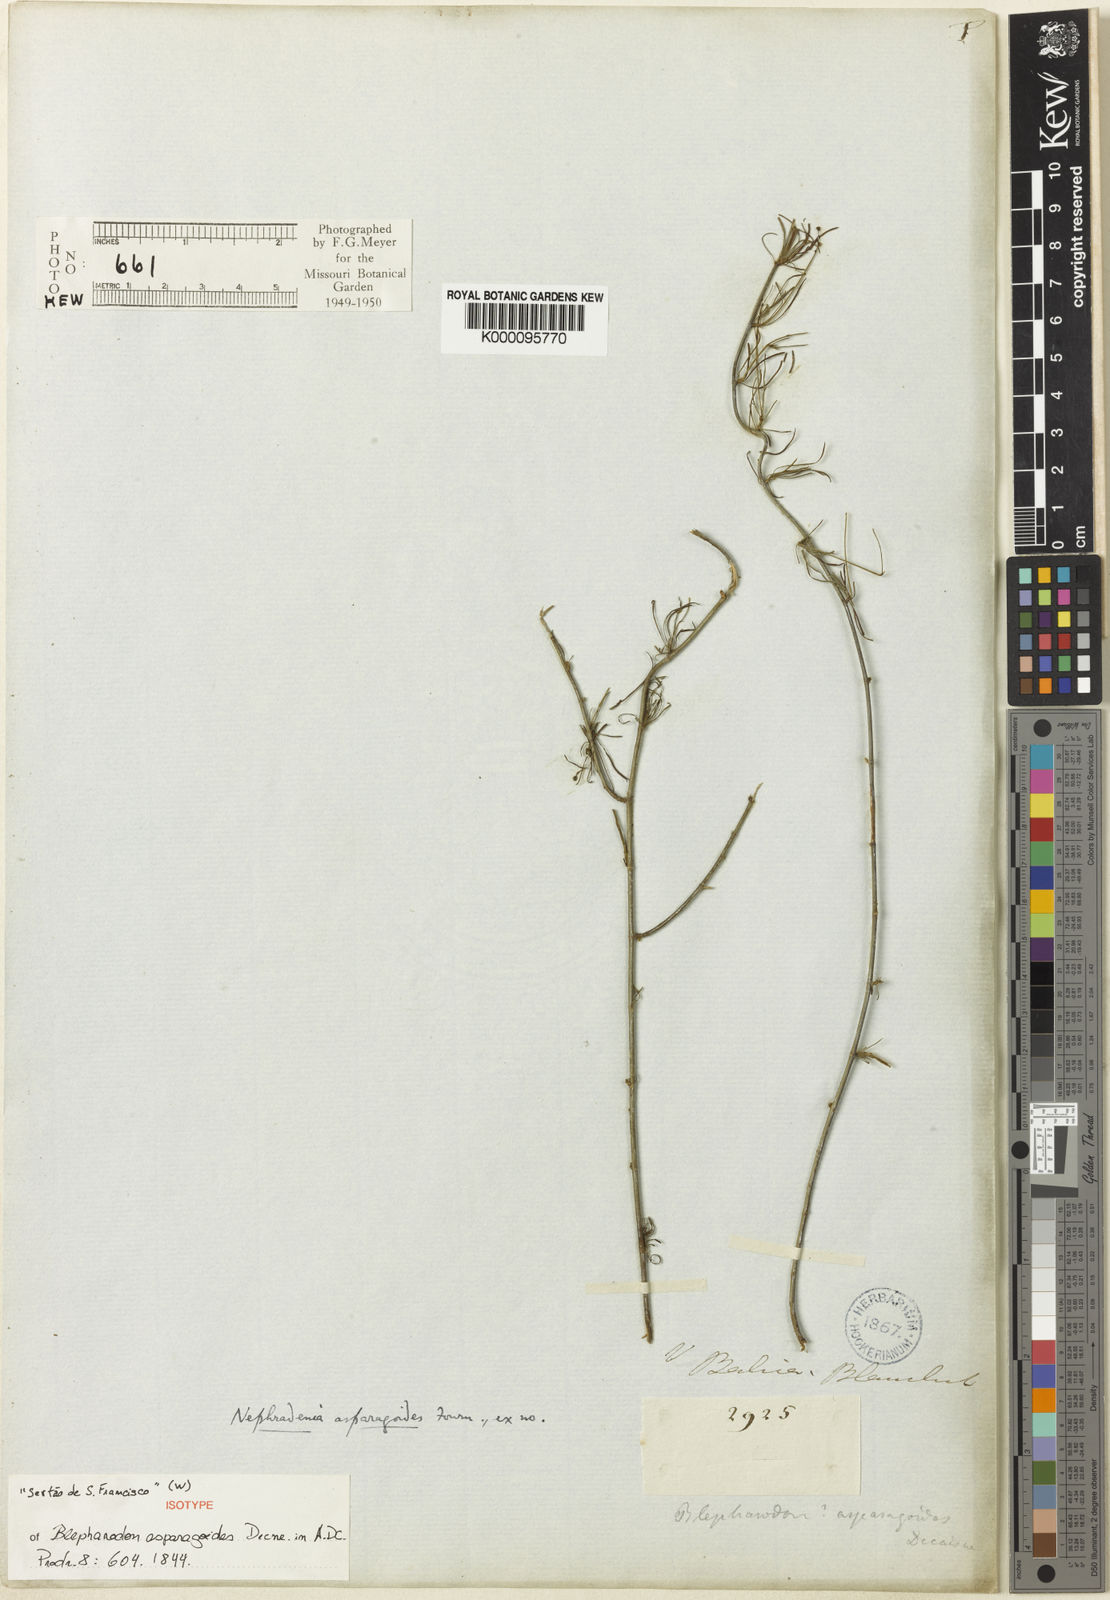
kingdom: Plantae
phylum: Tracheophyta
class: Magnoliopsida
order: Gentianales
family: Apocynaceae
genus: Nephradenia
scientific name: Nephradenia asparagoides
